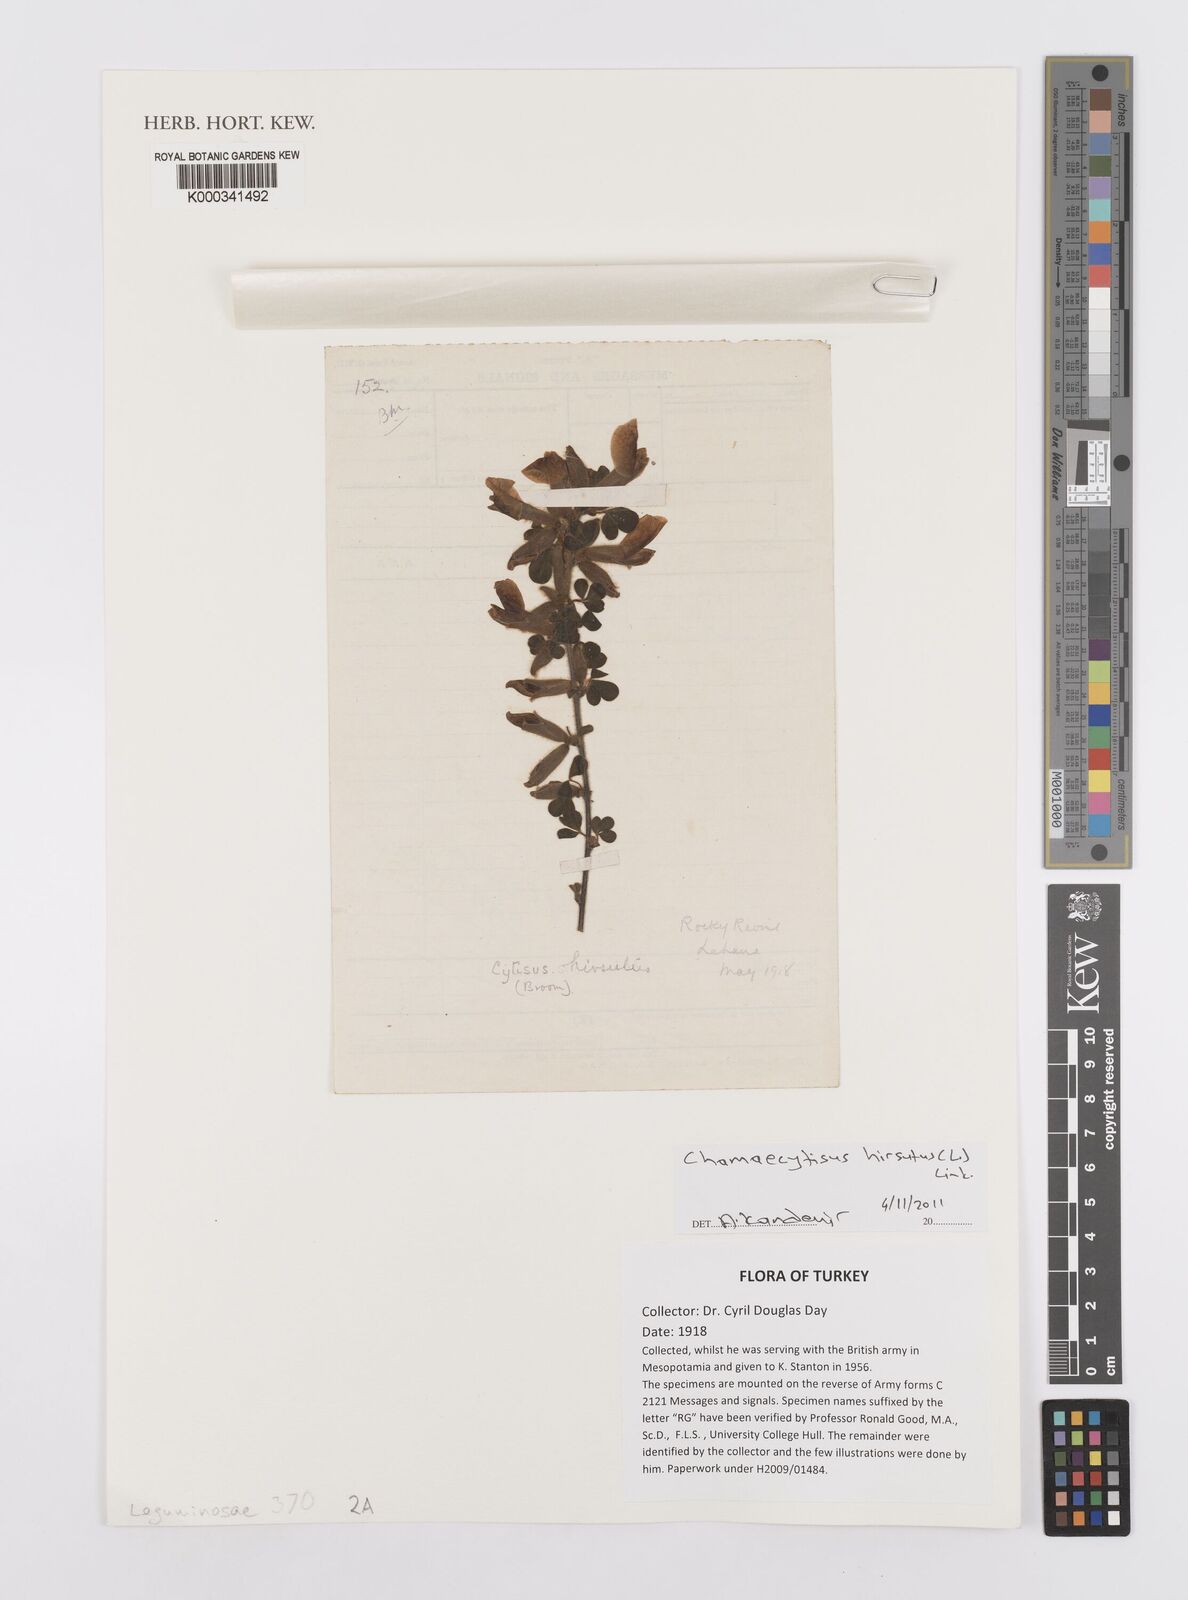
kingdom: Plantae
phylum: Tracheophyta
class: Magnoliopsida
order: Fabales
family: Fabaceae
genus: Chamaecytisus
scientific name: Chamaecytisus hirsutus
